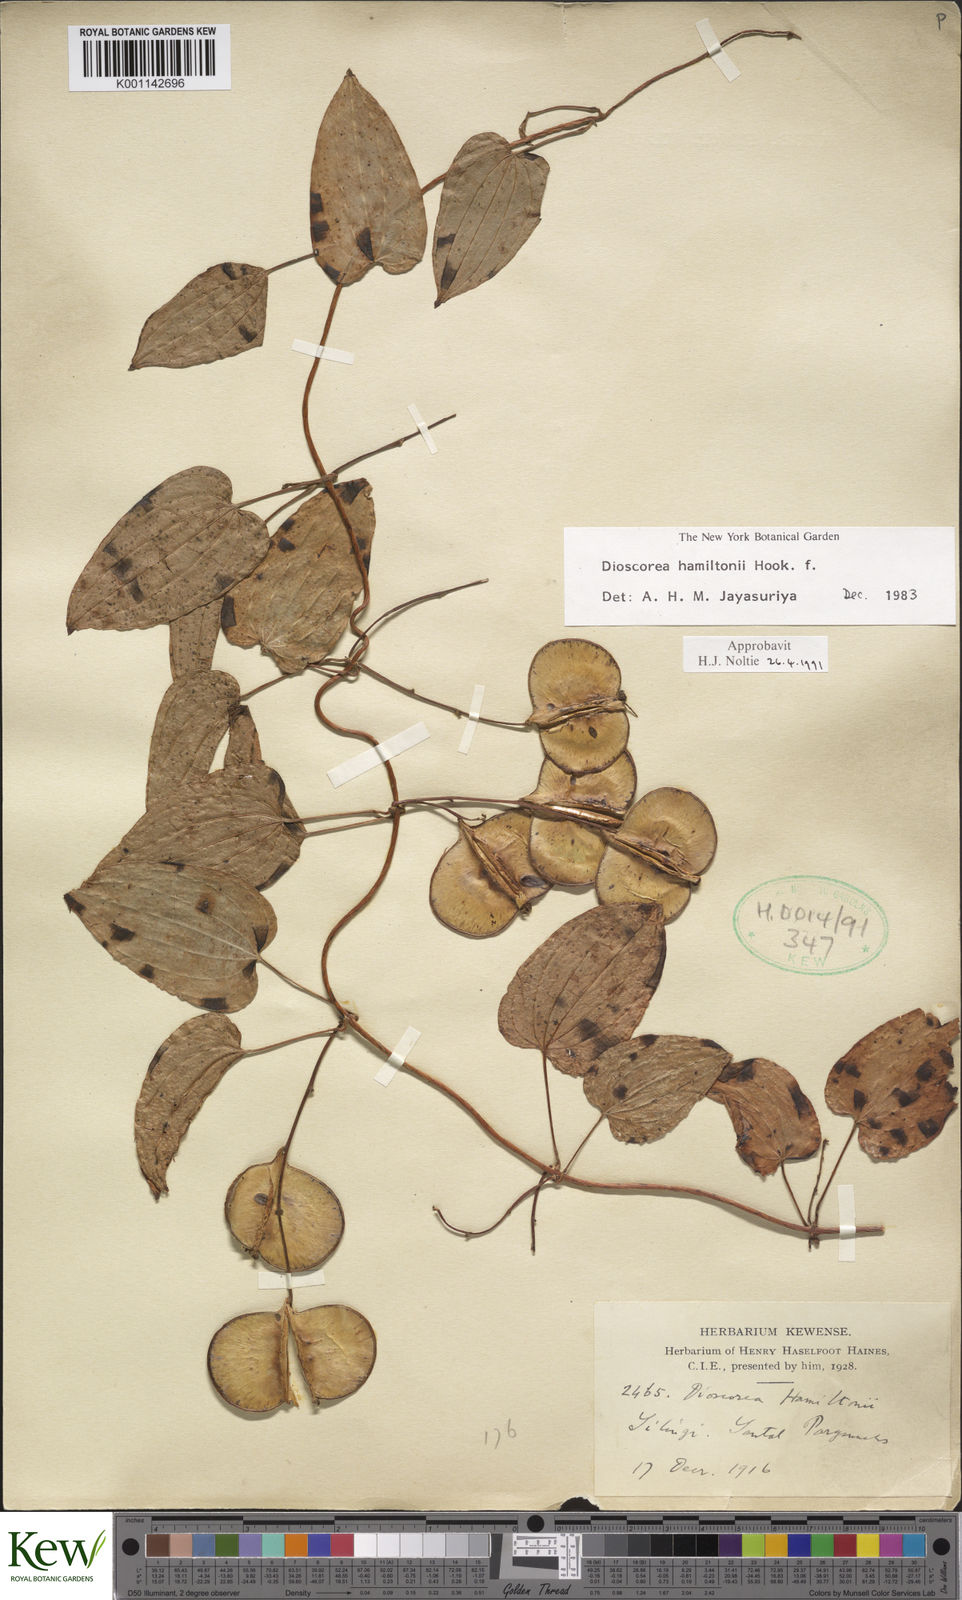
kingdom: Plantae
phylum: Tracheophyta
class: Liliopsida
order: Dioscoreales
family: Dioscoreaceae
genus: Dioscorea
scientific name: Dioscorea hamiltonii
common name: Mountain yam
